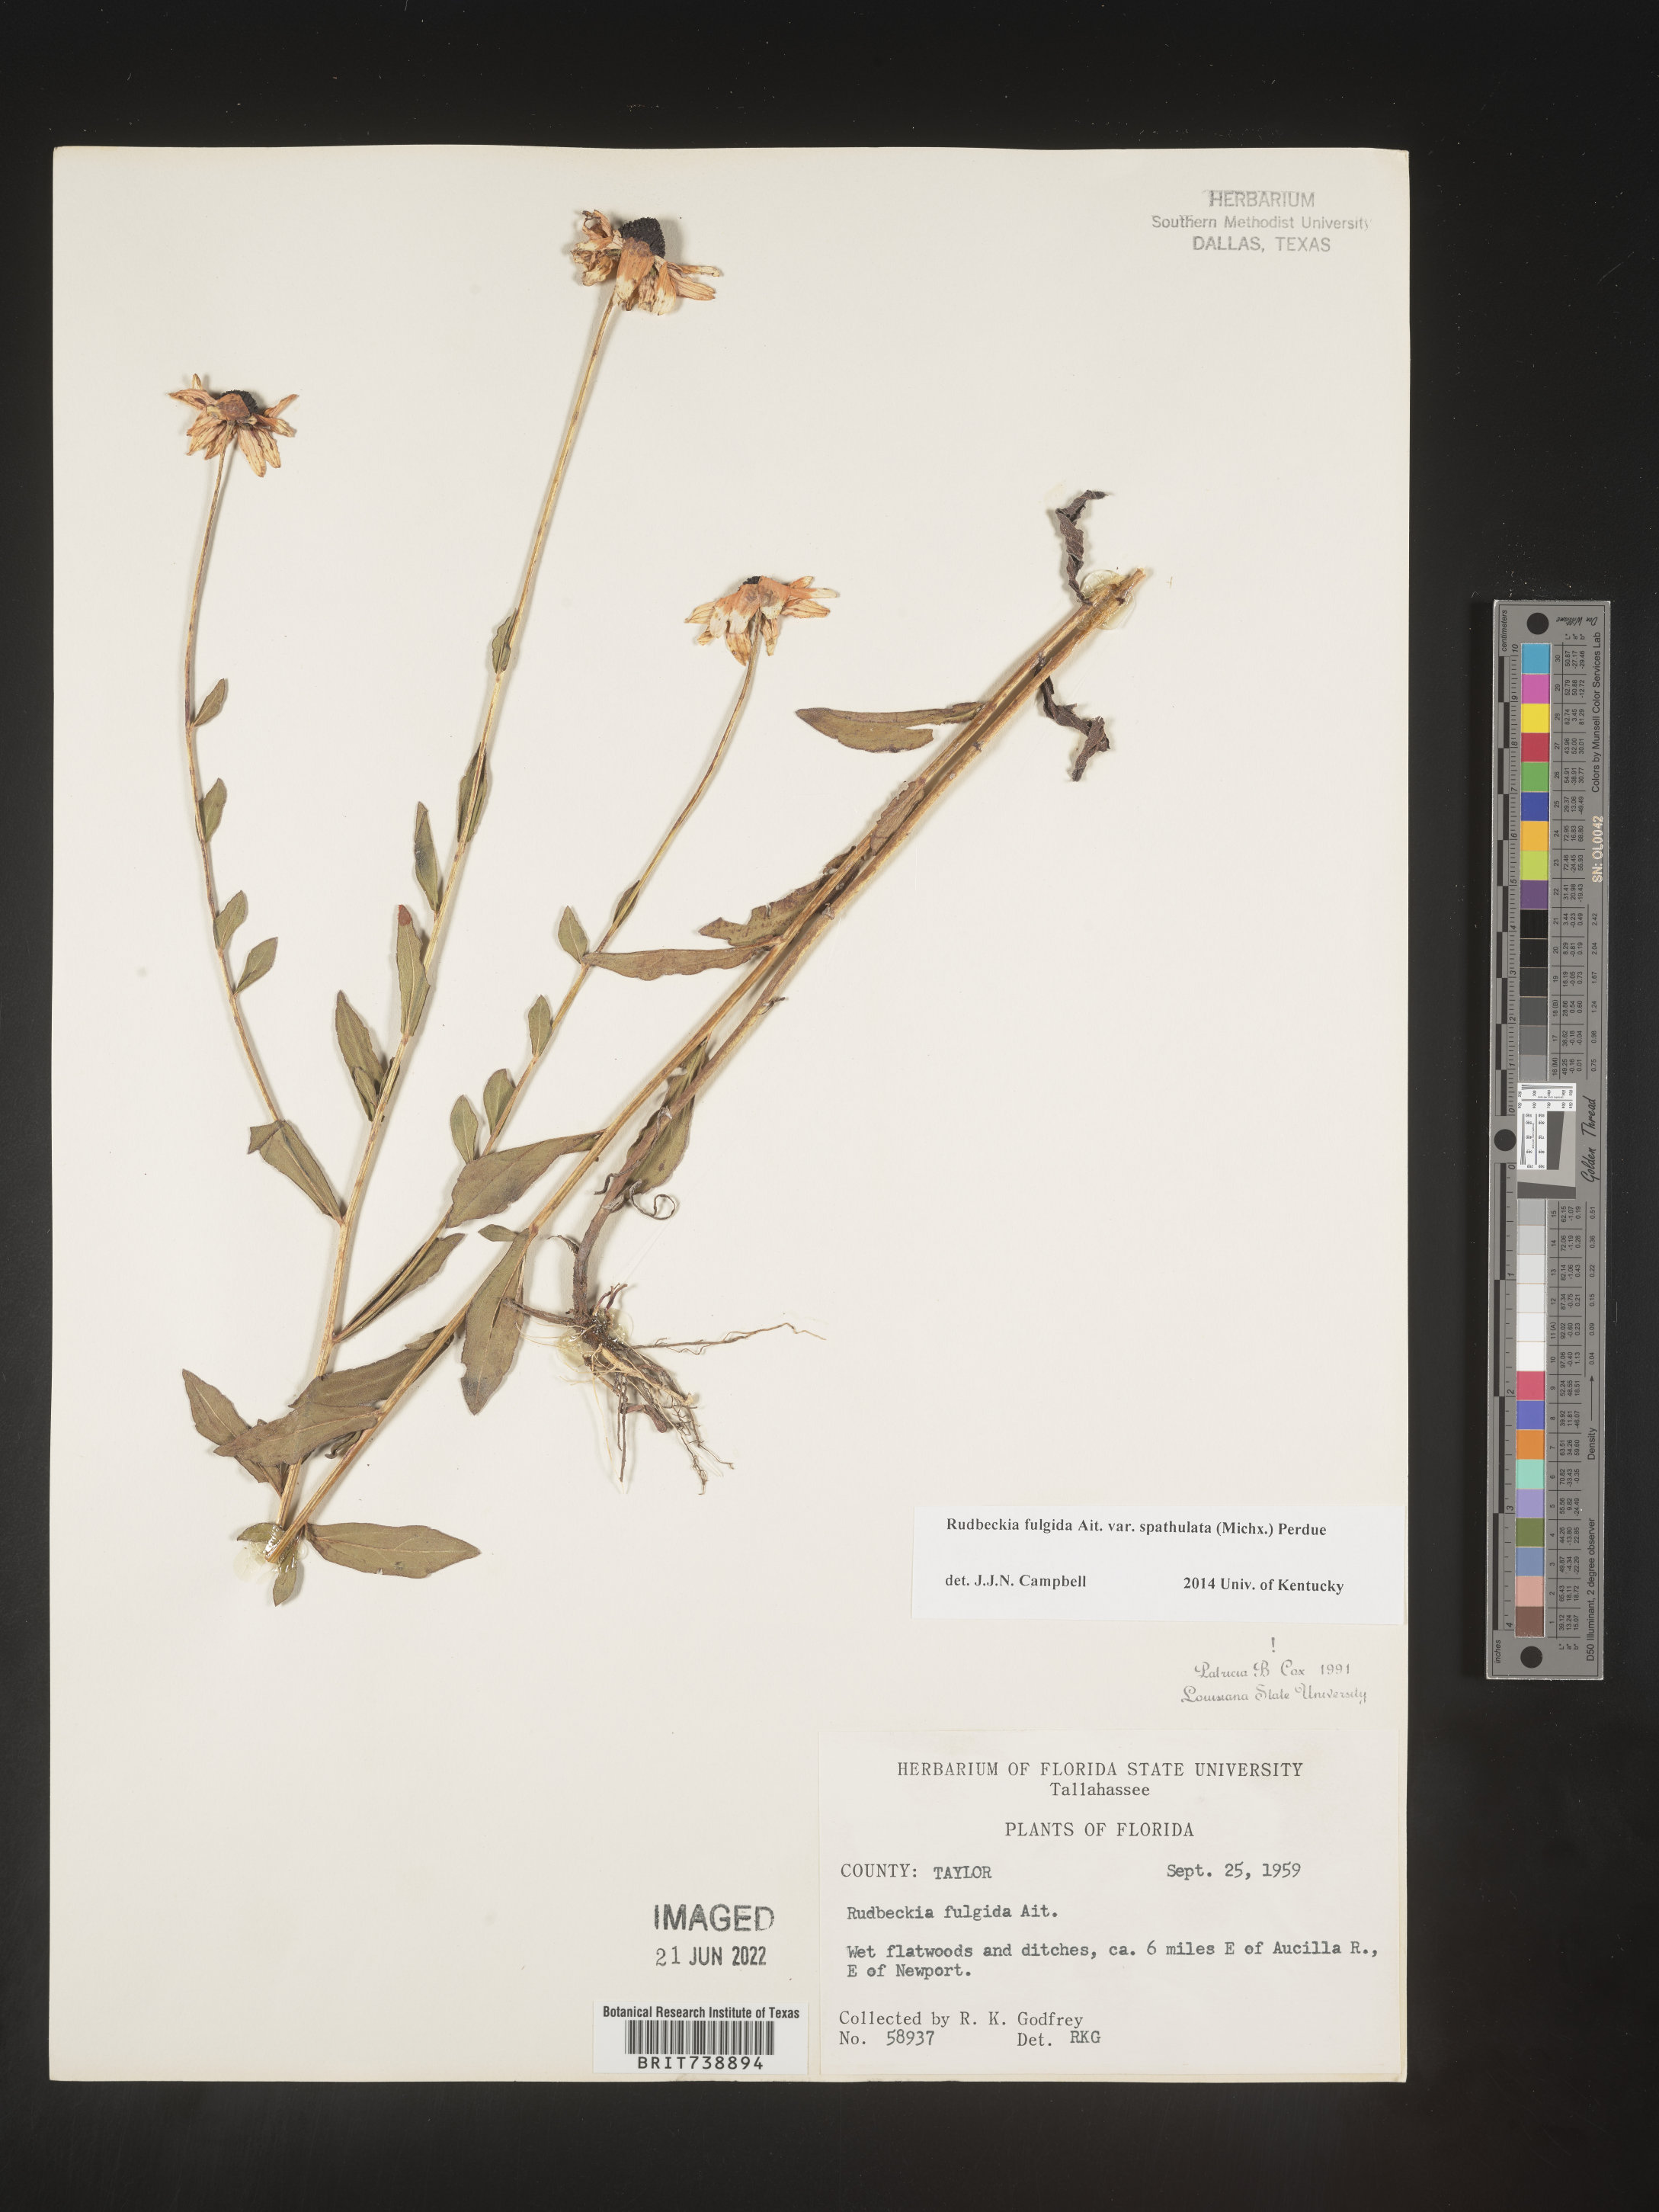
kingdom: Plantae
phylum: Tracheophyta
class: Magnoliopsida
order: Asterales
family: Asteraceae
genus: Rudbeckia
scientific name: Rudbeckia fulgida
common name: Perennial coneflower
